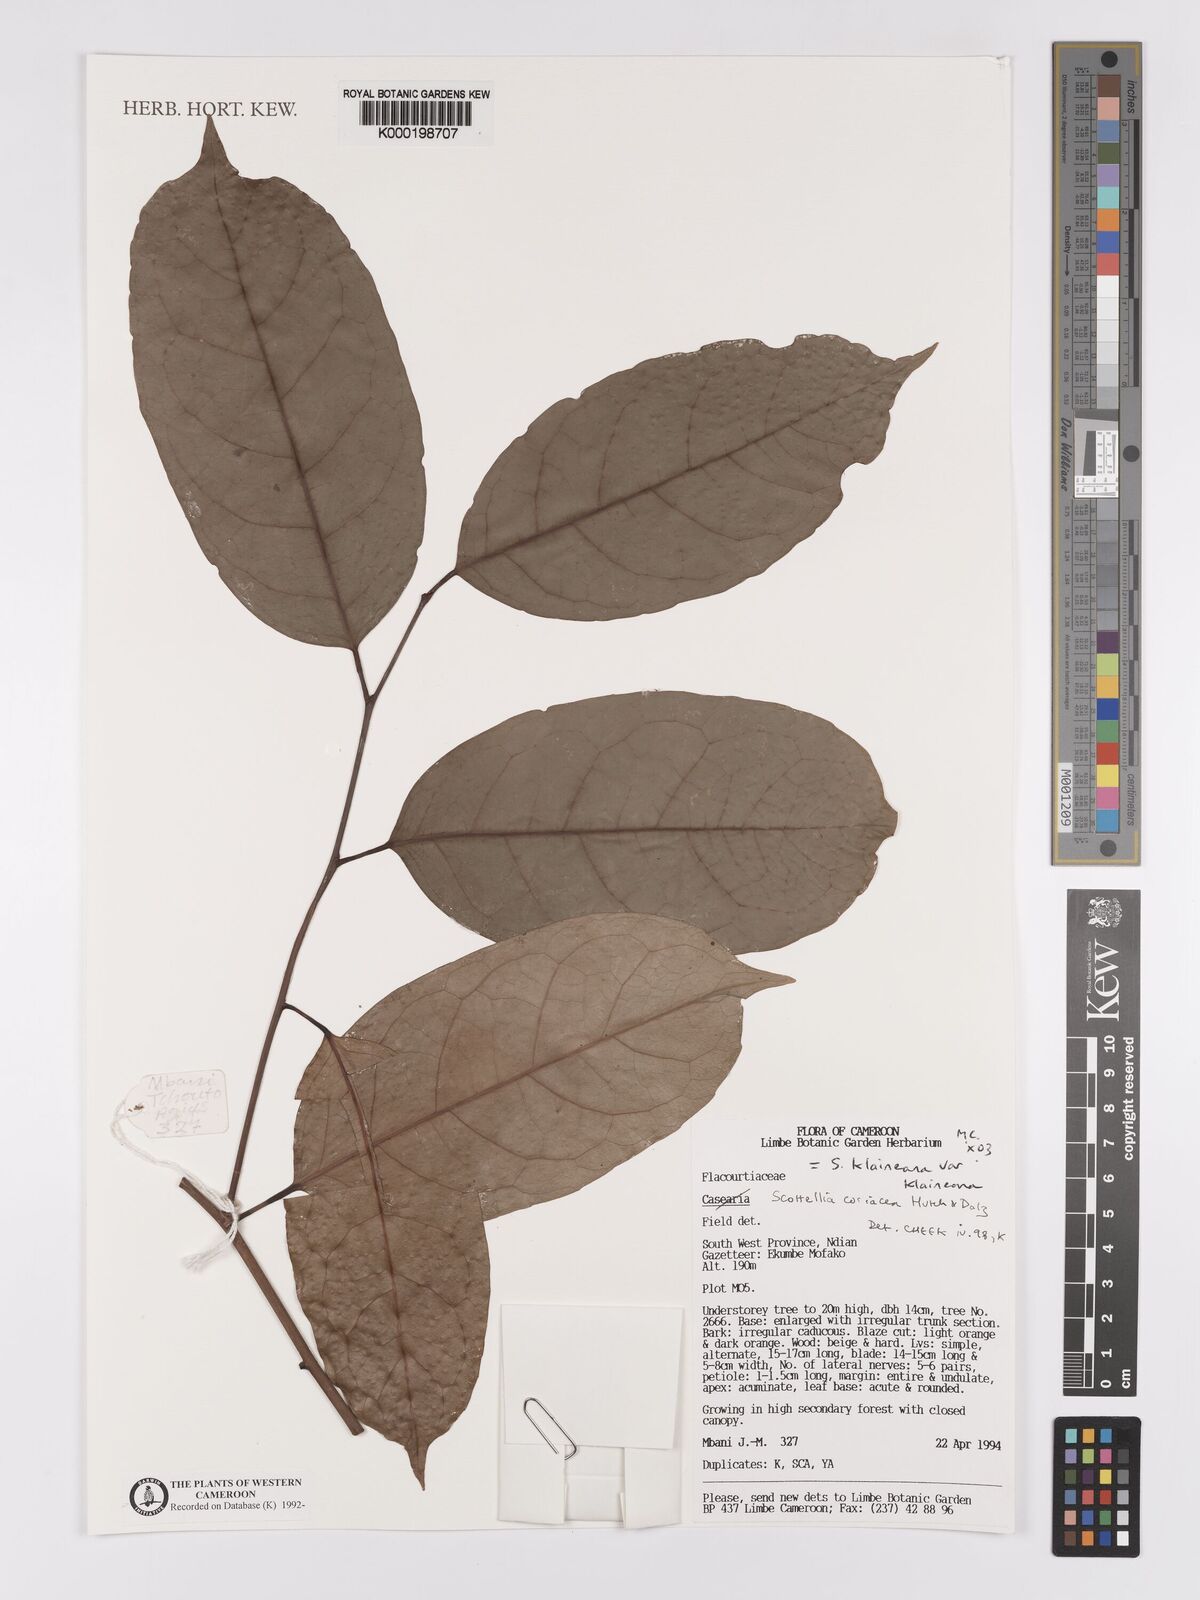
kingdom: Plantae
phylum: Tracheophyta
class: Magnoliopsida
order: Malpighiales
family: Achariaceae
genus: Scottellia
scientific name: Scottellia klaineana
